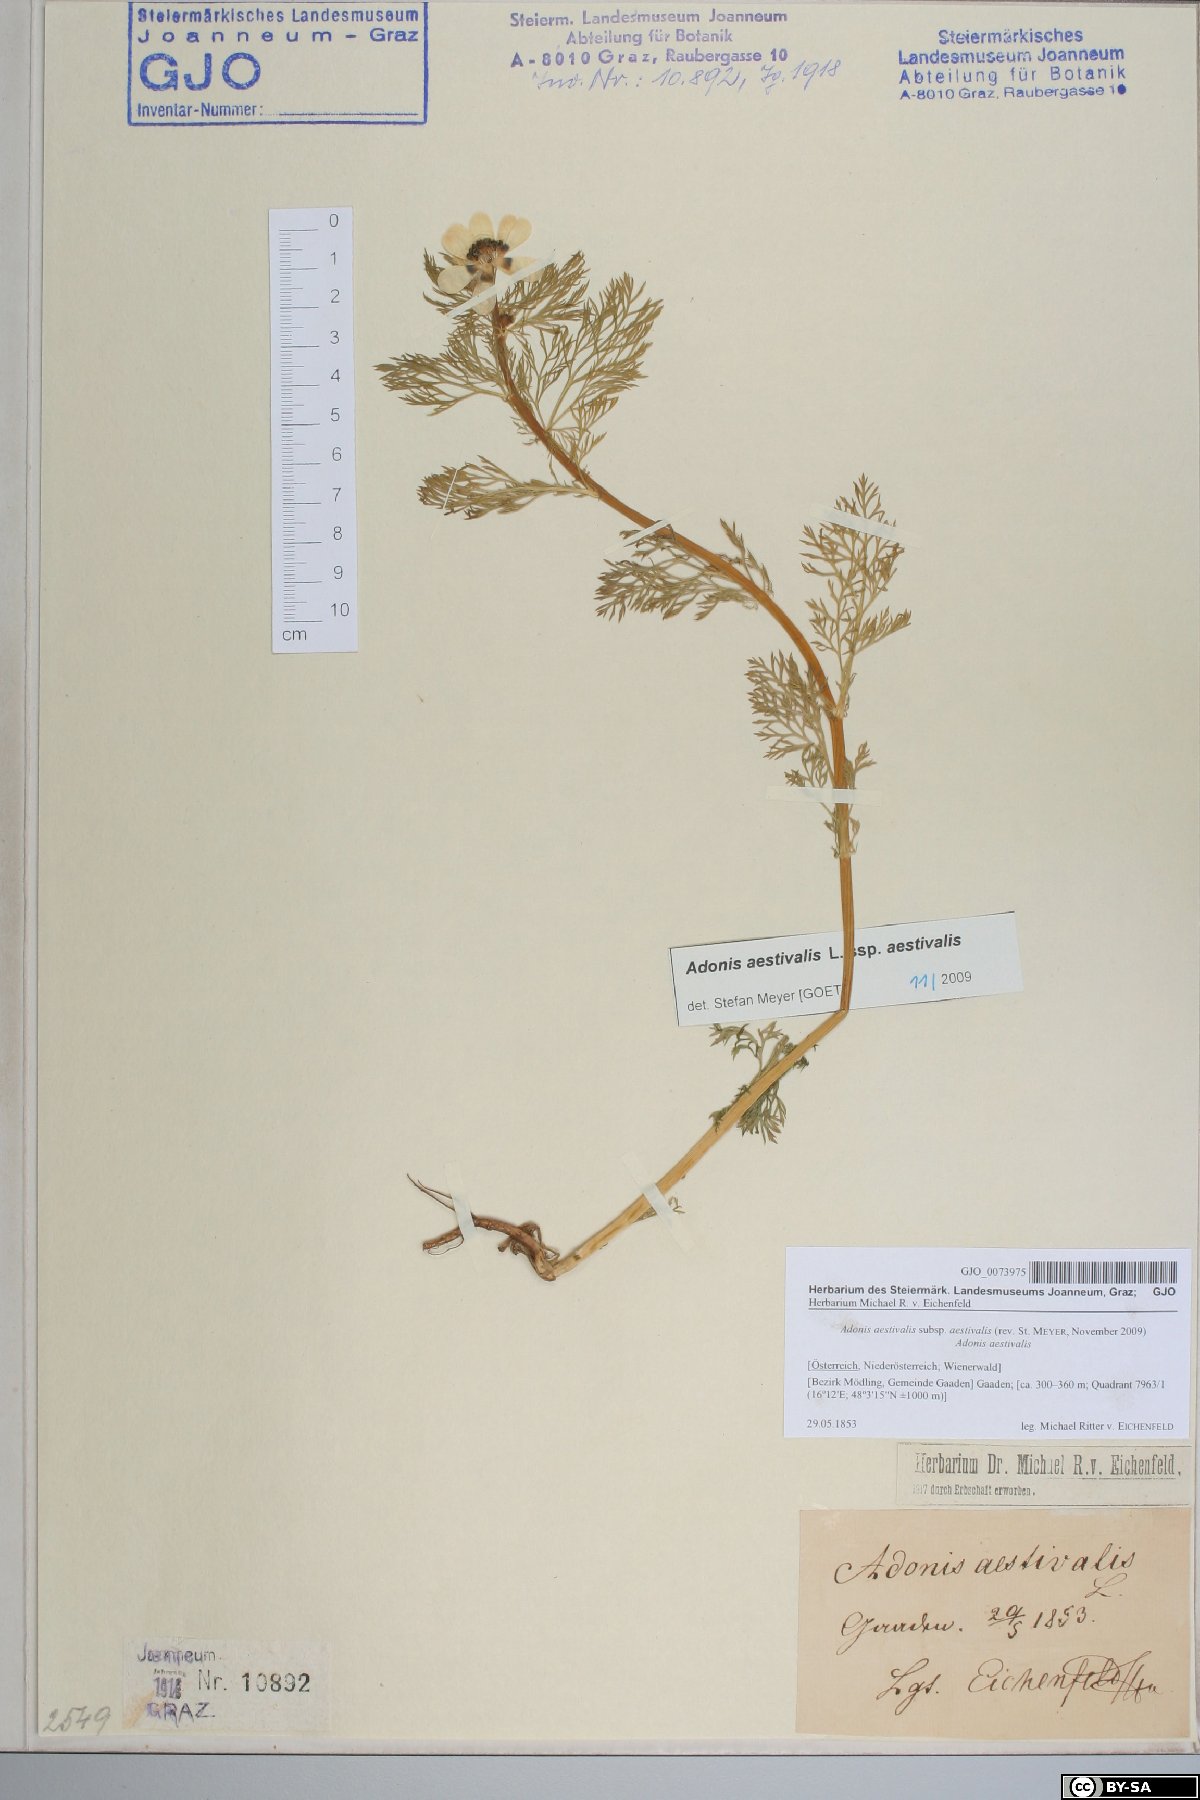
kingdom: Plantae
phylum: Tracheophyta
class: Magnoliopsida
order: Ranunculales
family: Ranunculaceae
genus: Adonis
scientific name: Adonis aestivalis
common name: Summer pheasant's-eye
